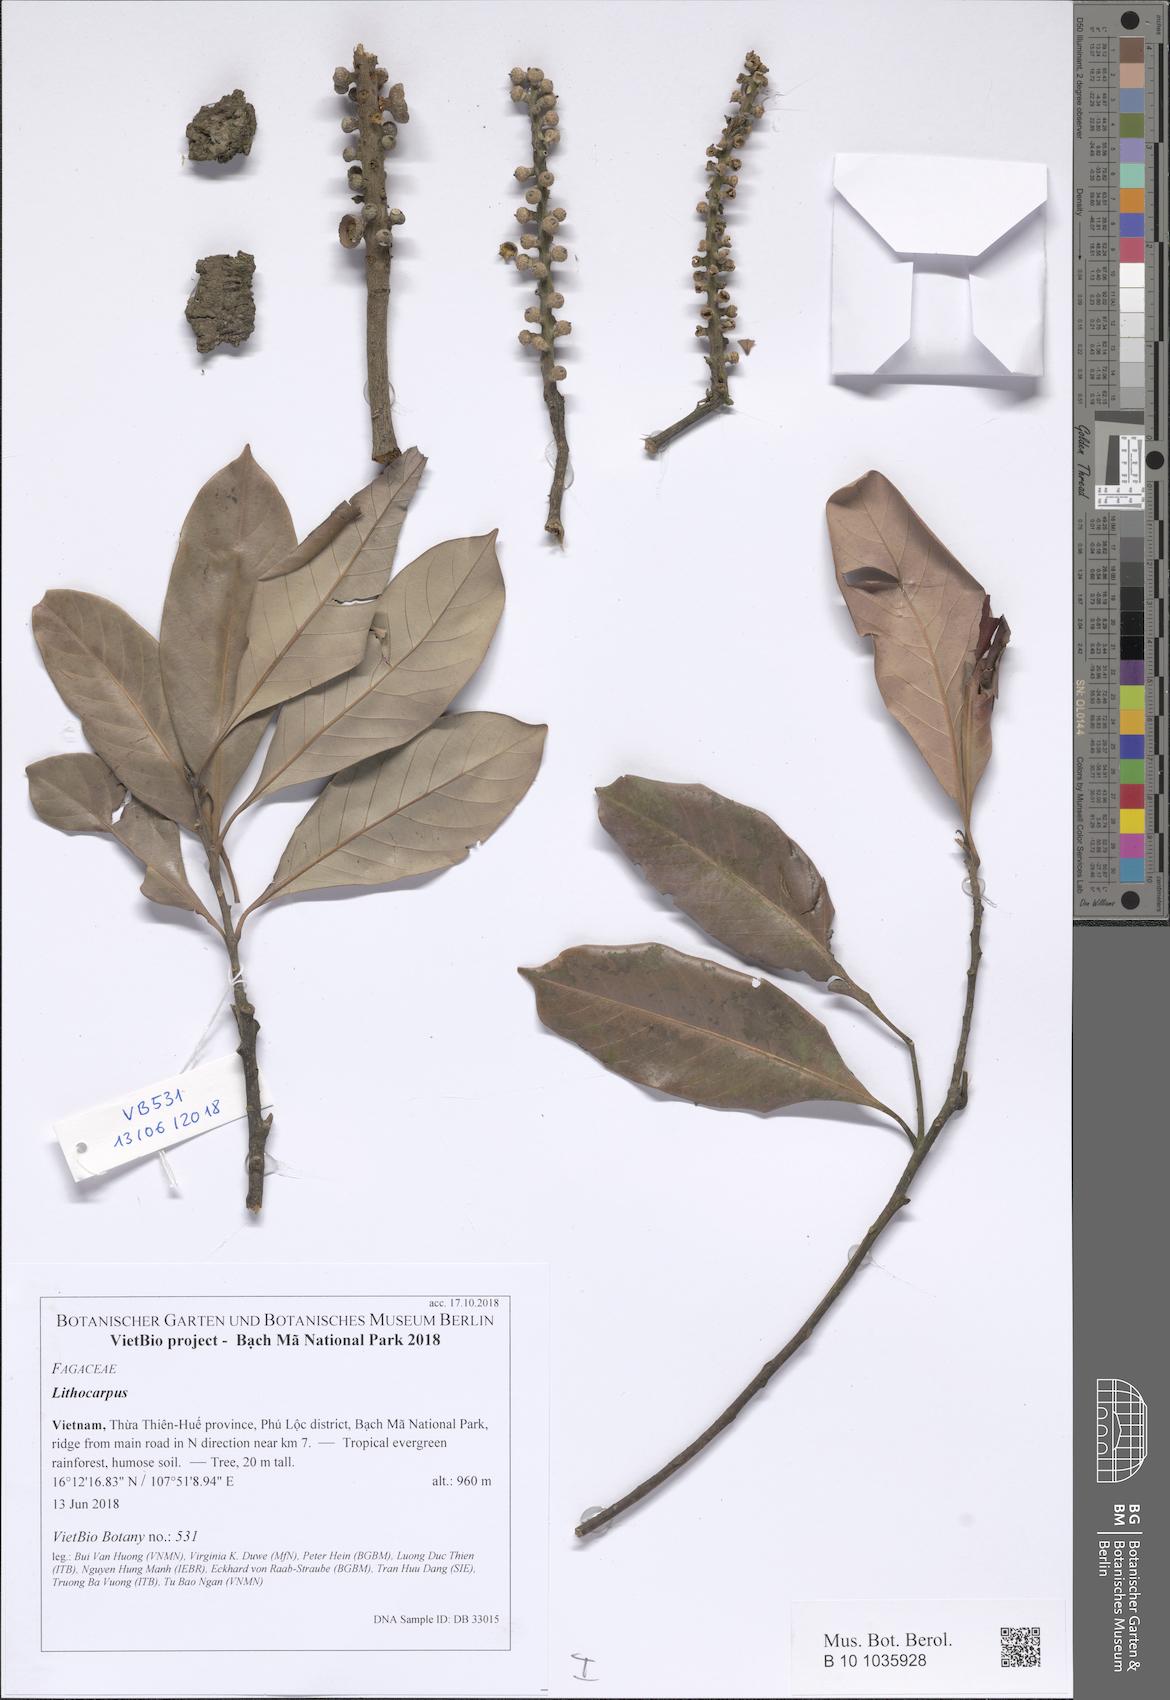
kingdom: Plantae
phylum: Tracheophyta
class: Magnoliopsida
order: Fagales
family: Fagaceae
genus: Lithocarpus
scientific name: Lithocarpus
